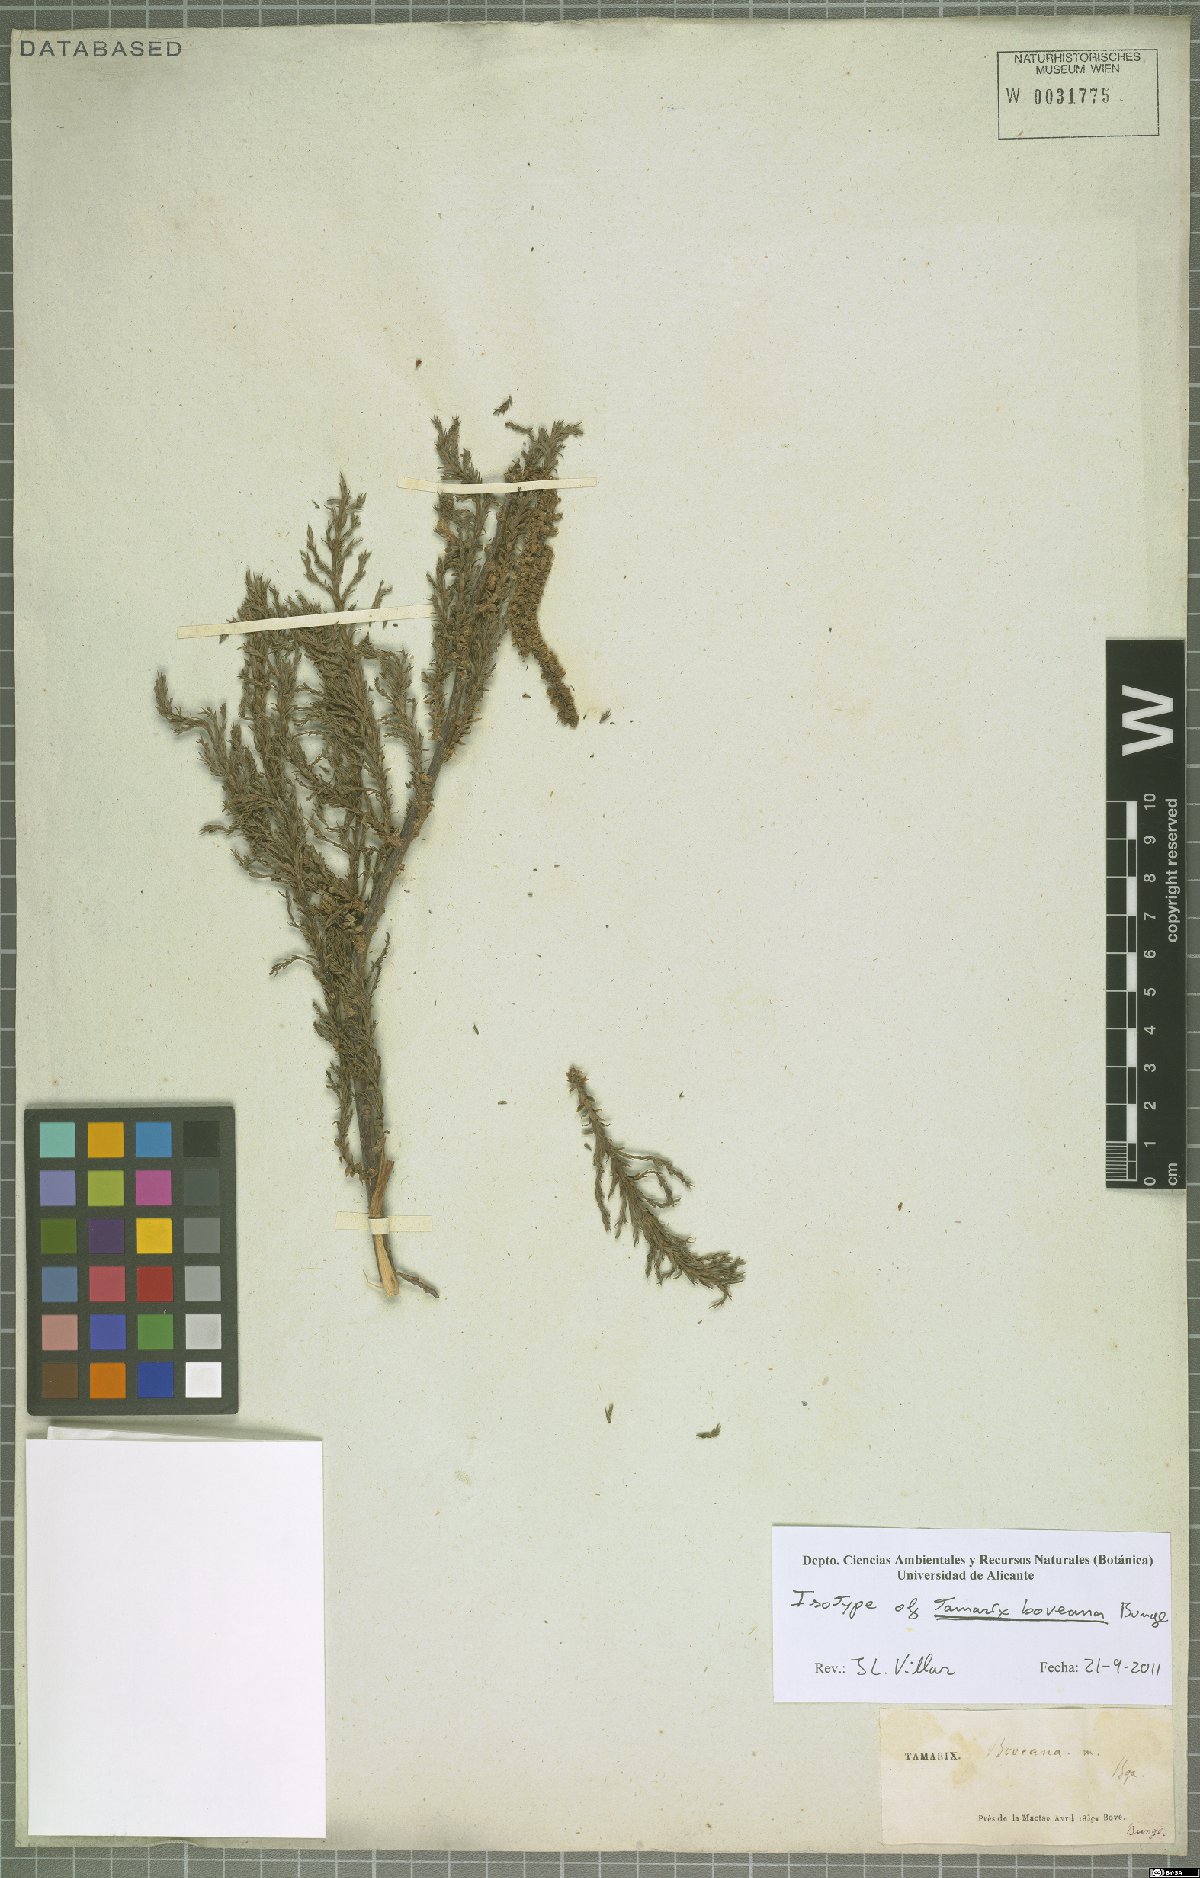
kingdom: Plantae
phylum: Tracheophyta
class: Magnoliopsida
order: Caryophyllales
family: Tamaricaceae
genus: Tamarix
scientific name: Tamarix boveana
